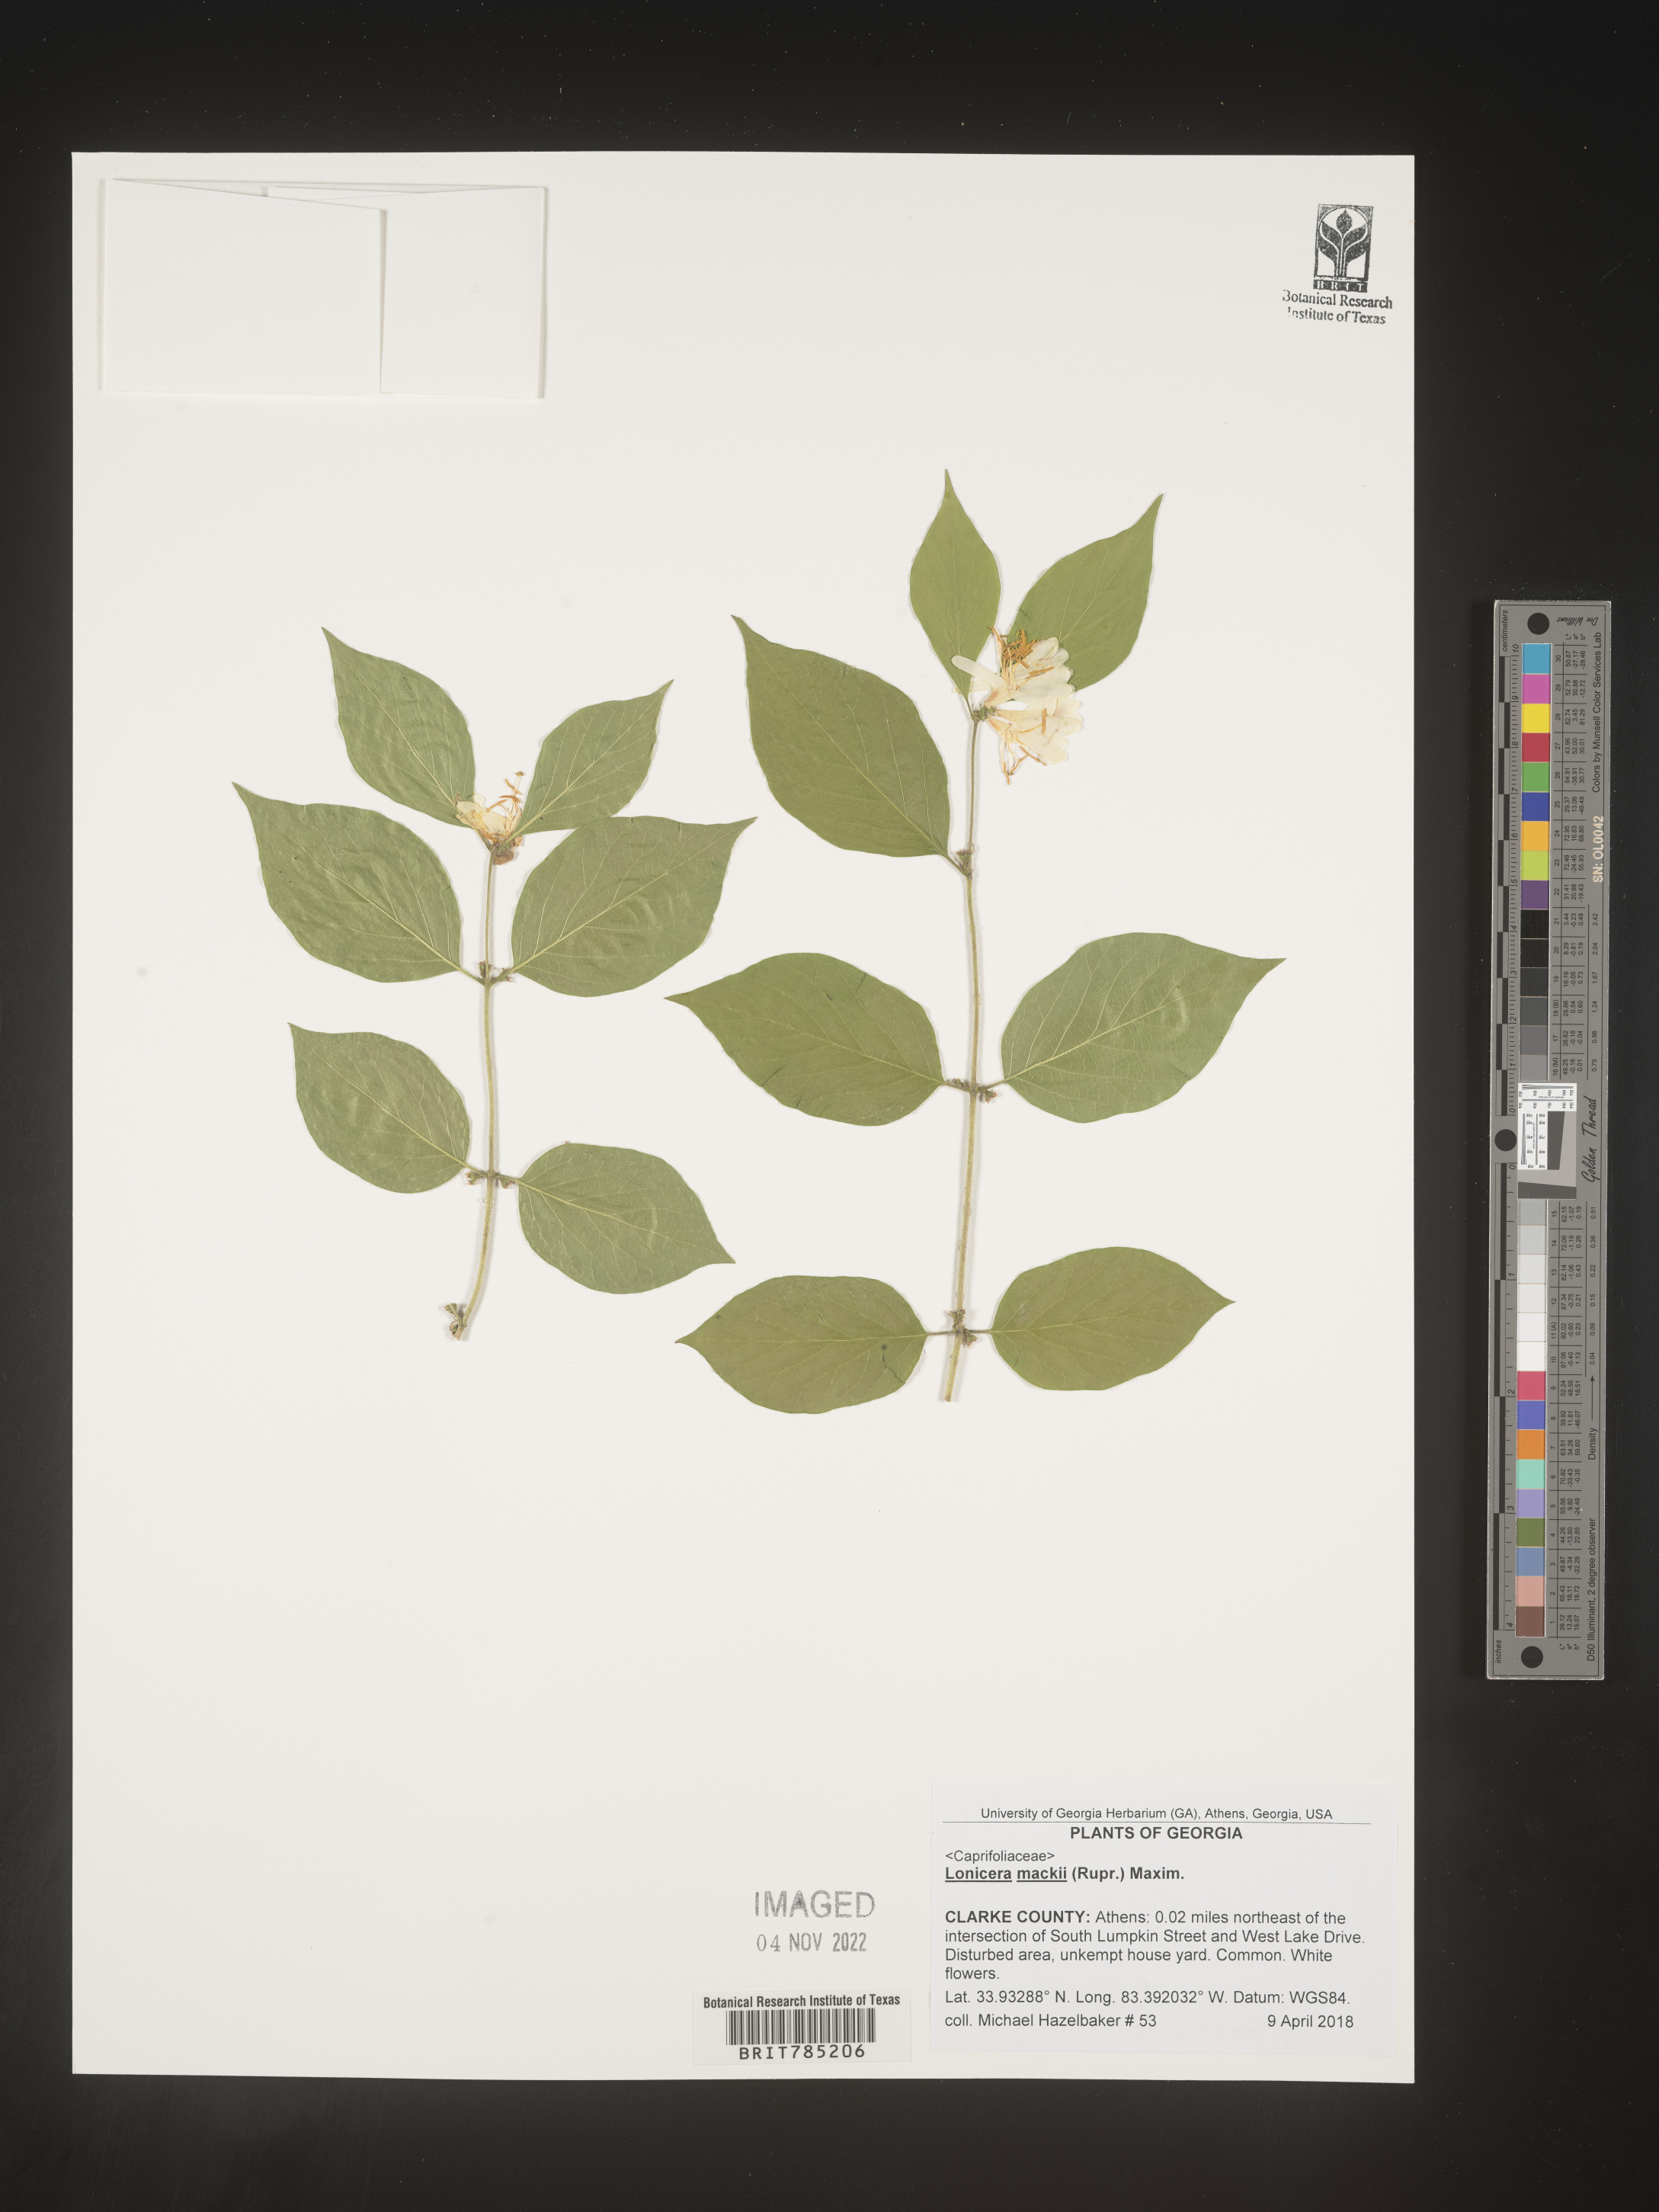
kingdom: Plantae
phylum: Tracheophyta
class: Magnoliopsida
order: Dipsacales
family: Caprifoliaceae
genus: Lonicera
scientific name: Lonicera
